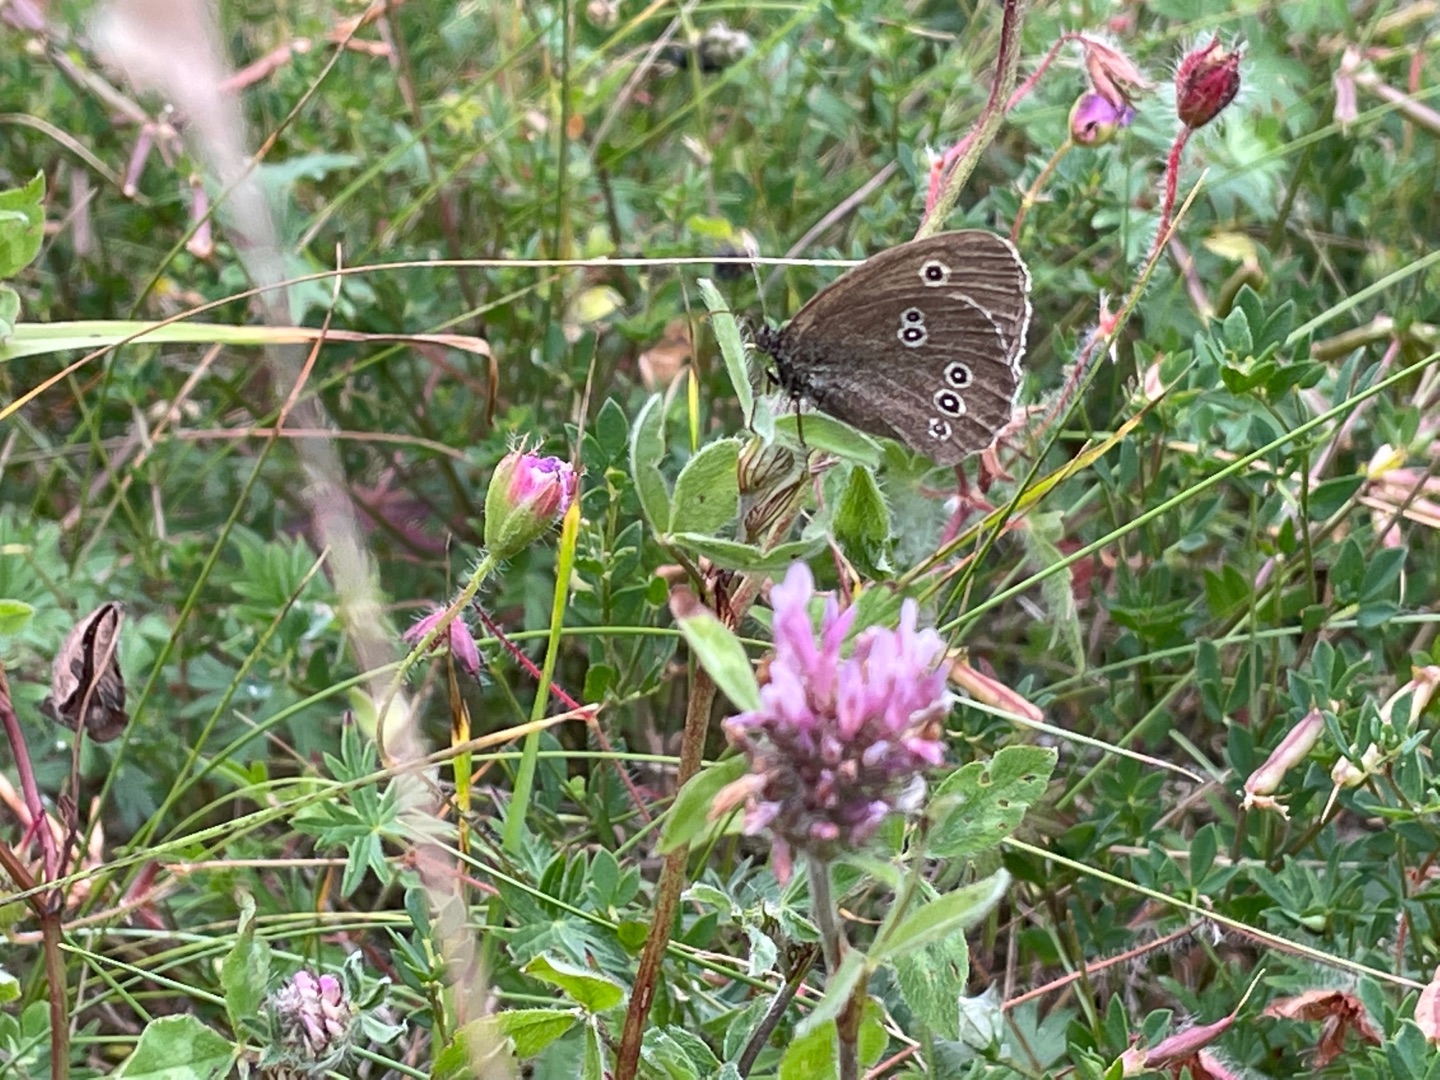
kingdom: Animalia
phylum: Arthropoda
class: Insecta
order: Lepidoptera
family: Nymphalidae
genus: Aphantopus
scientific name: Aphantopus hyperantus
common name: Engrandøje
